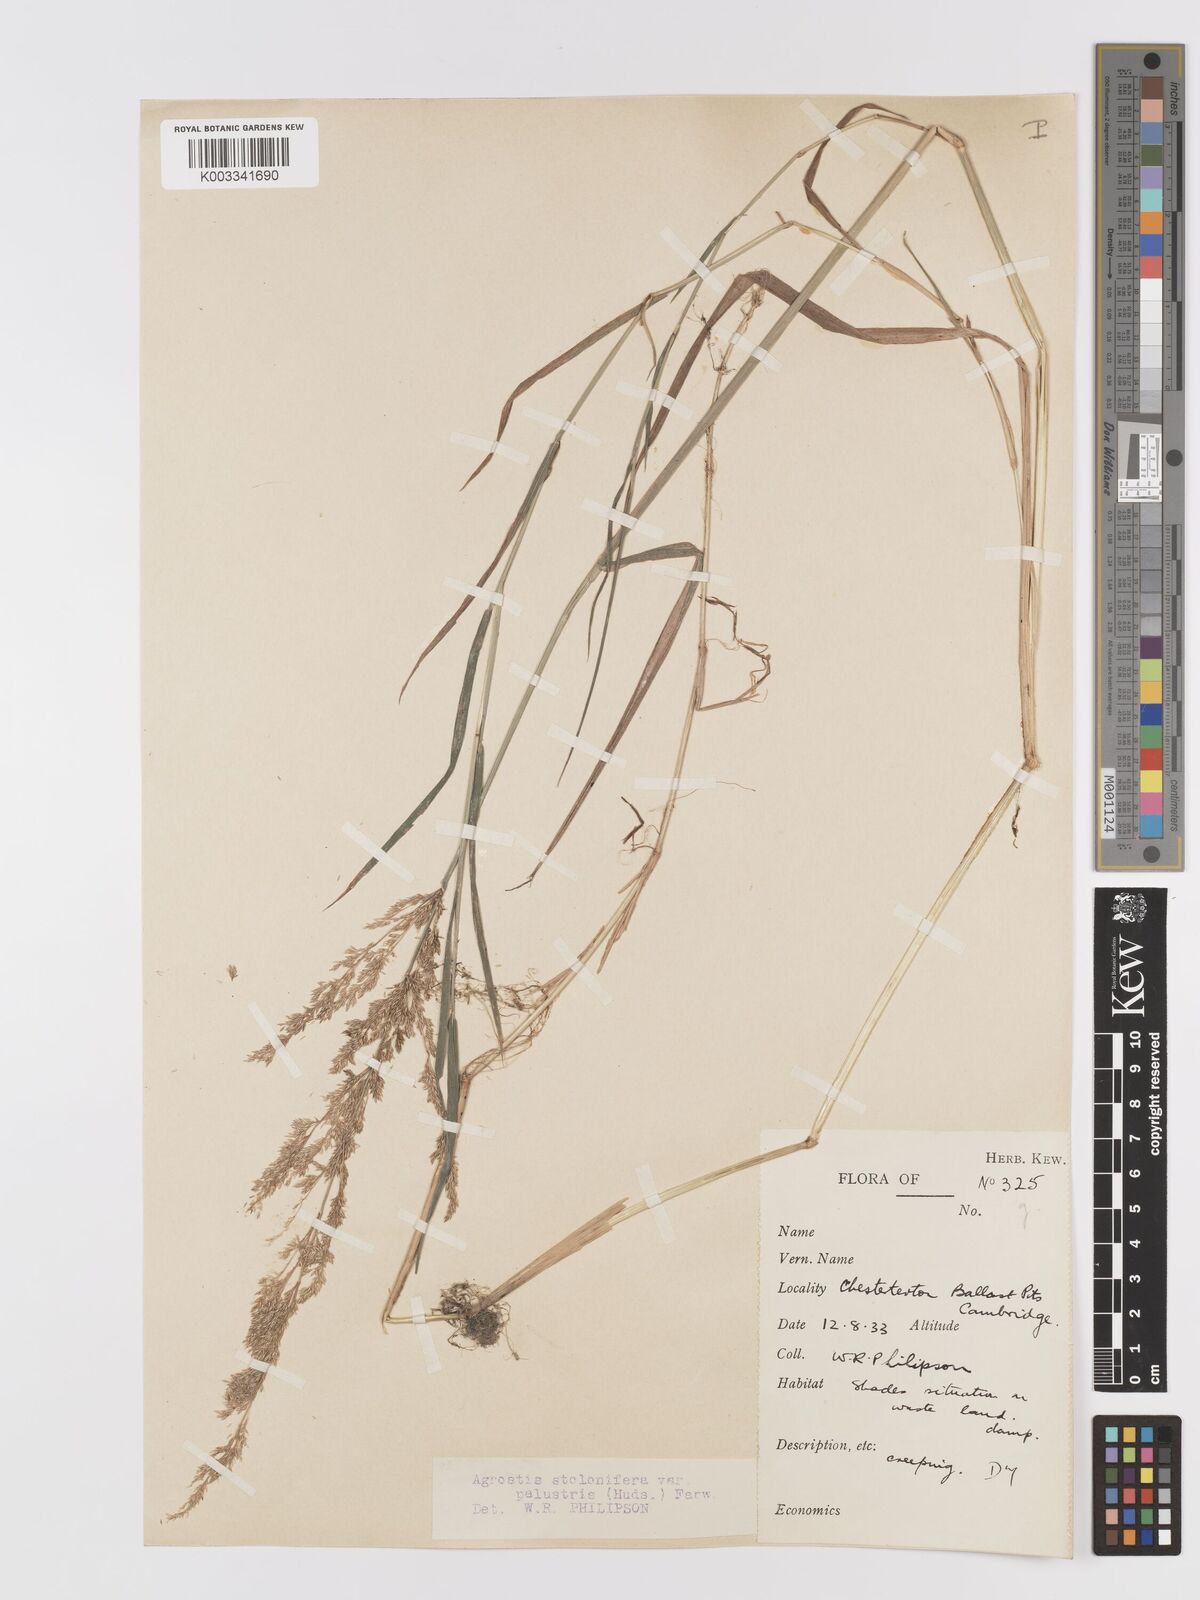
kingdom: Plantae
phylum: Tracheophyta
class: Liliopsida
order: Poales
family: Poaceae
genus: Agrostis
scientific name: Agrostis stolonifera
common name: Creeping bentgrass
